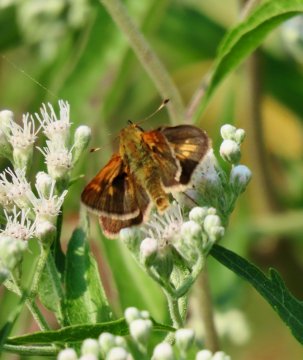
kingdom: Animalia
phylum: Arthropoda
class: Insecta
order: Lepidoptera
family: Hesperiidae
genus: Polites
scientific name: Polites coras
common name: Peck's Skipper
